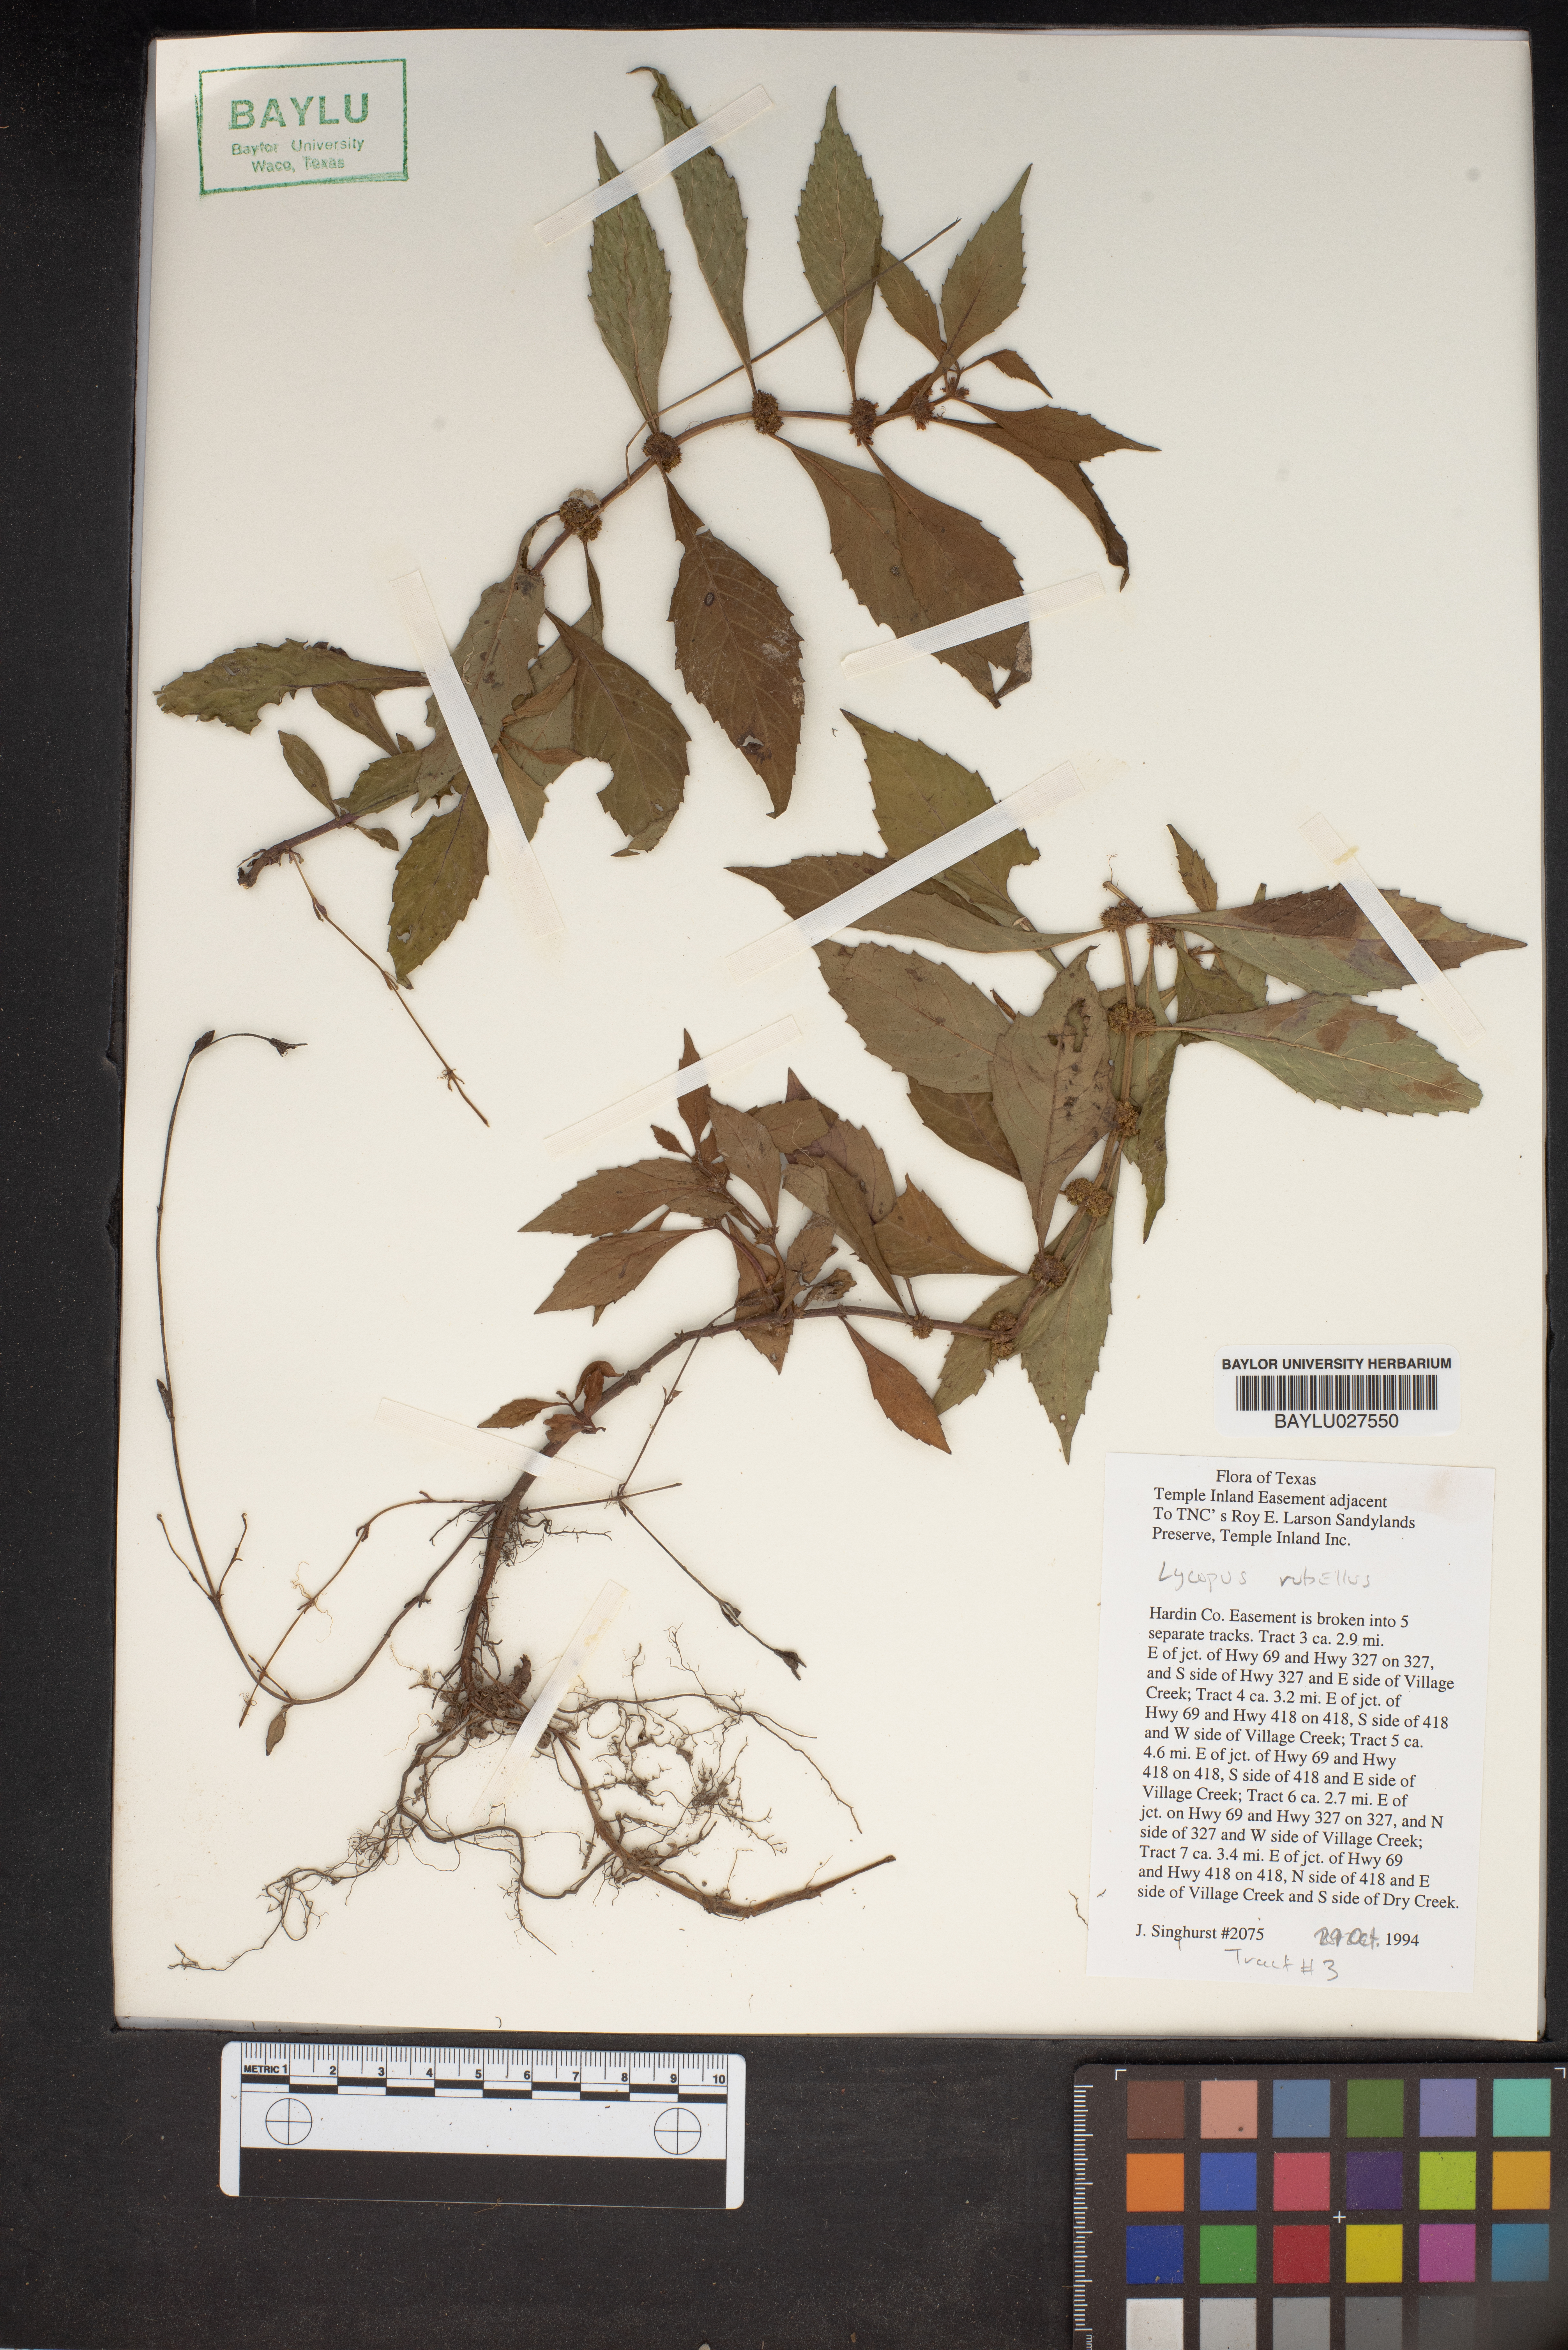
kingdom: Plantae
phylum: Tracheophyta
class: Magnoliopsida
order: Lamiales
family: Lamiaceae
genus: Lycopus
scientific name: Lycopus rubellus
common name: Stalked bugleweed
